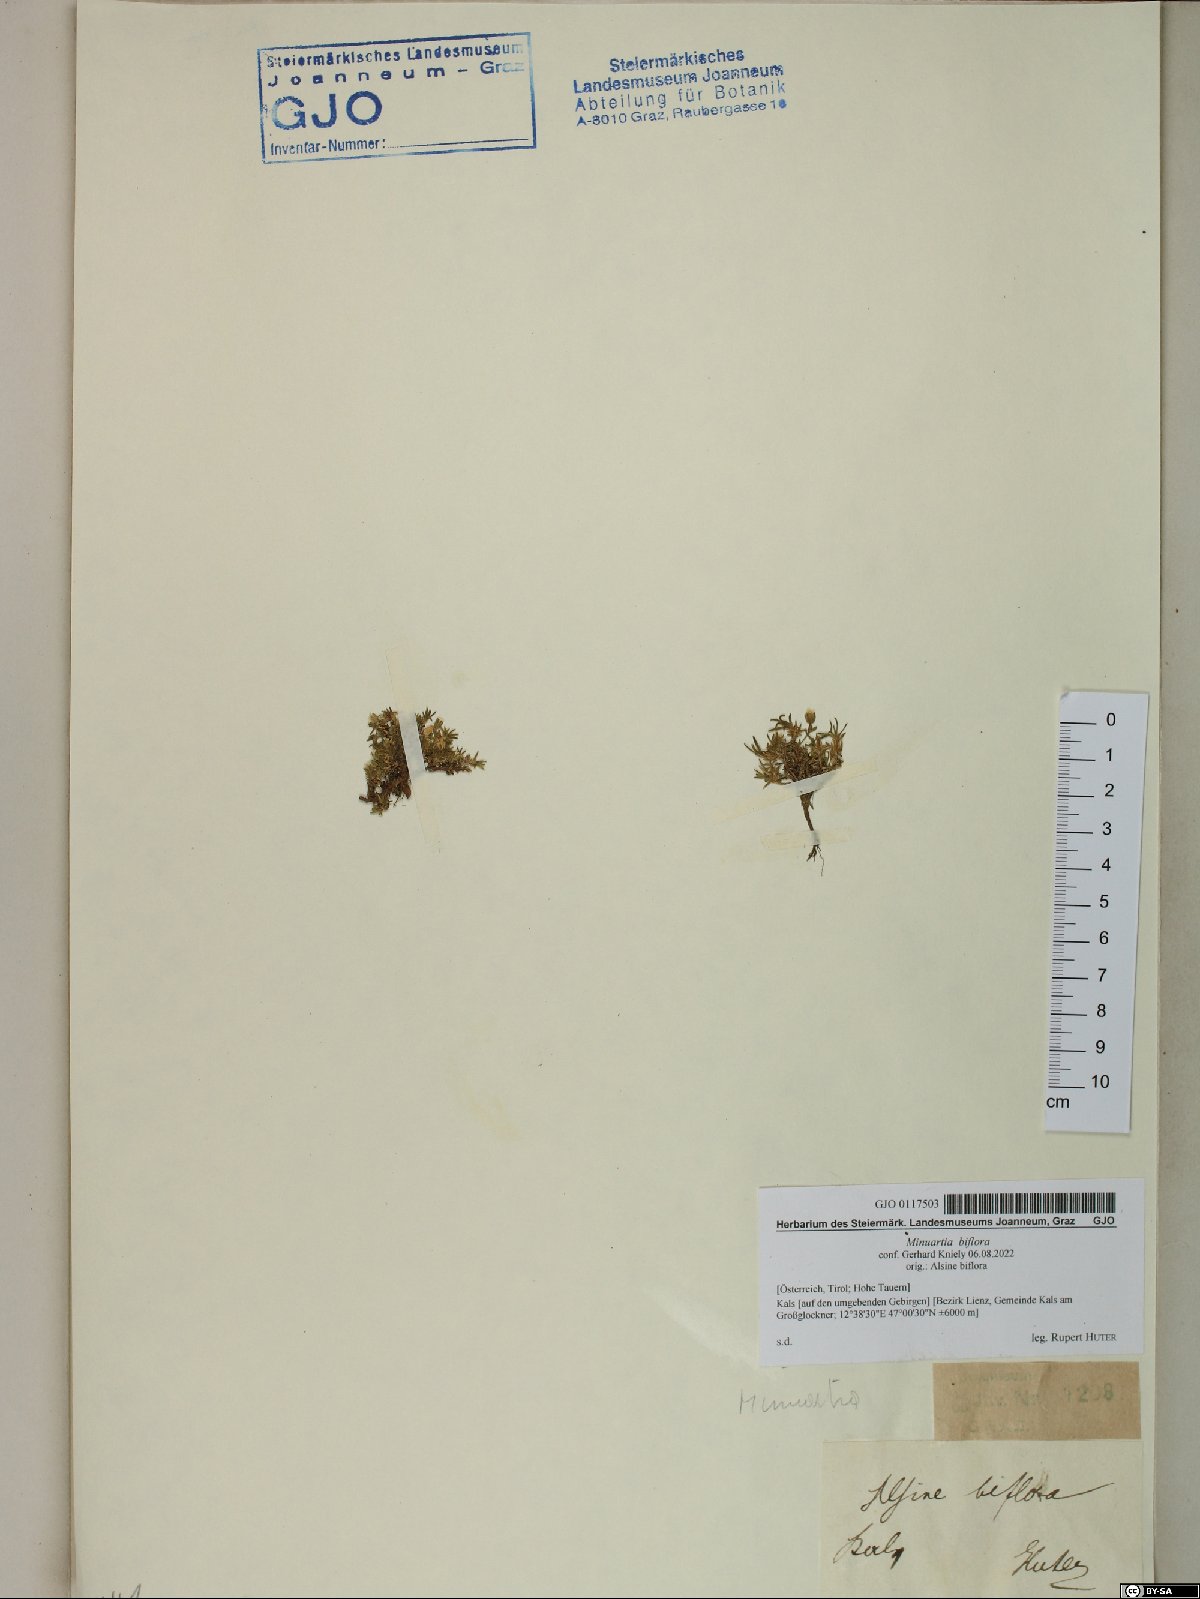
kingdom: Plantae
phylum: Tracheophyta
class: Magnoliopsida
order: Caryophyllales
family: Caryophyllaceae
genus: Cherleria
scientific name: Cherleria biflora
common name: Mountain sandwort
